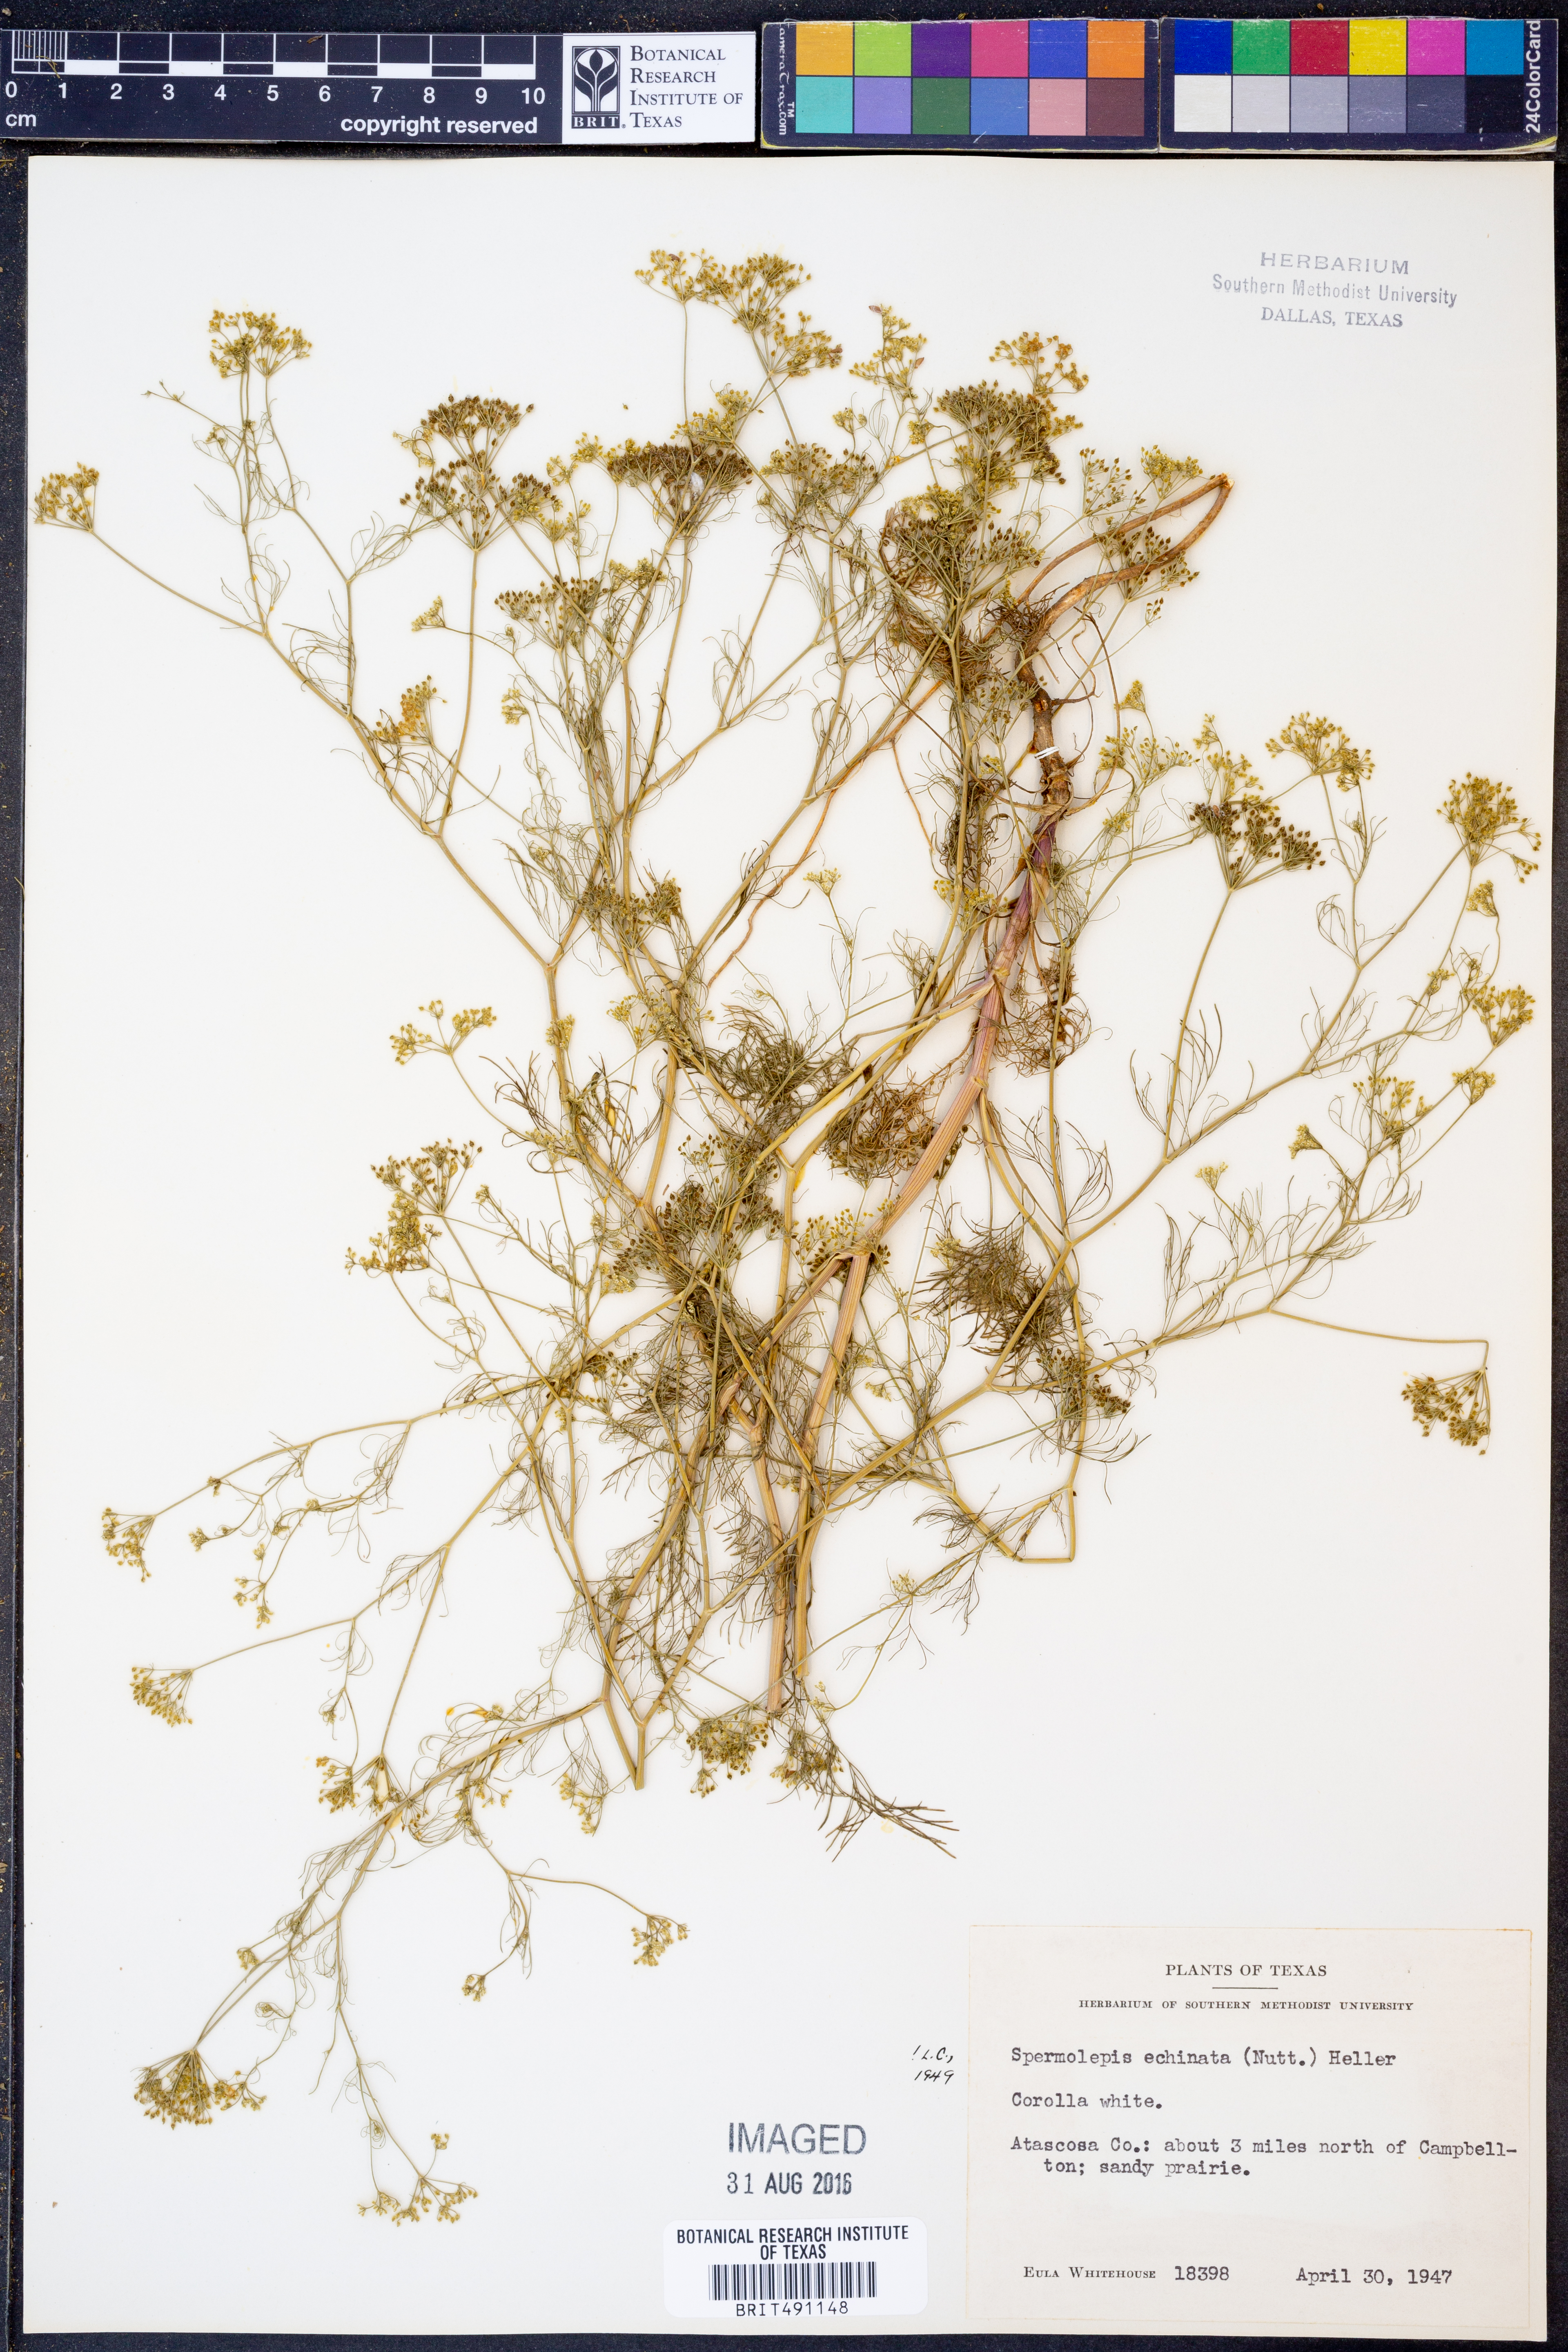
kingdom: Plantae
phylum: Tracheophyta
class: Magnoliopsida
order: Apiales
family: Apiaceae
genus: Spermolepis
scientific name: Spermolepis echinata
